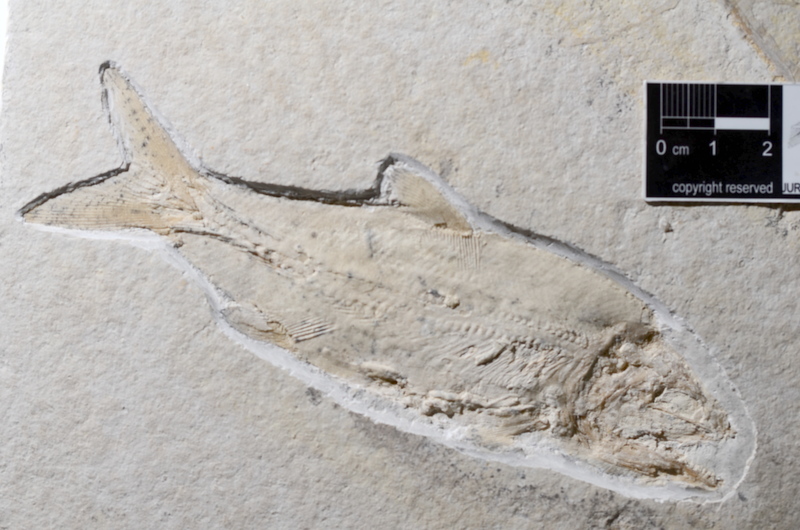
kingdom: Animalia
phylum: Chordata
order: Amiiformes
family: Caturidae
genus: Caturus
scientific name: Caturus furcatus
